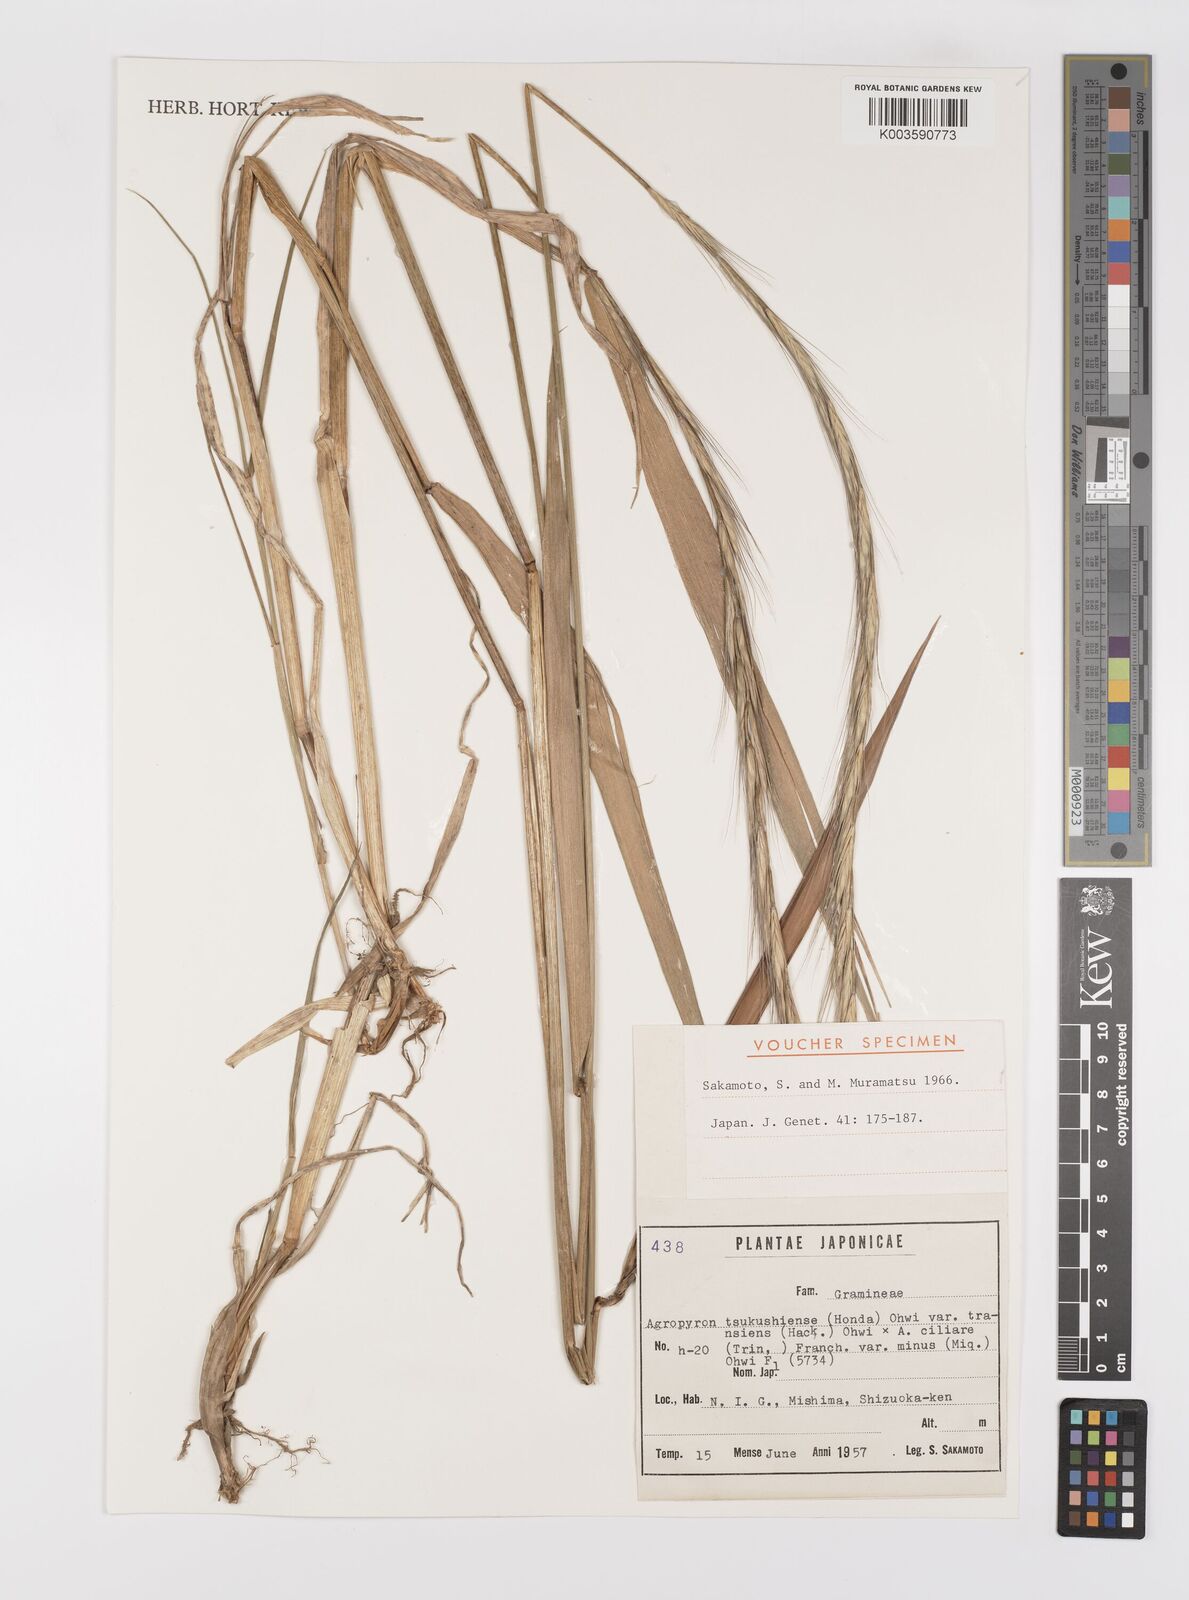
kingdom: Plantae
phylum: Tracheophyta
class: Liliopsida
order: Poales
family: Poaceae
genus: Elymus
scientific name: Elymus
